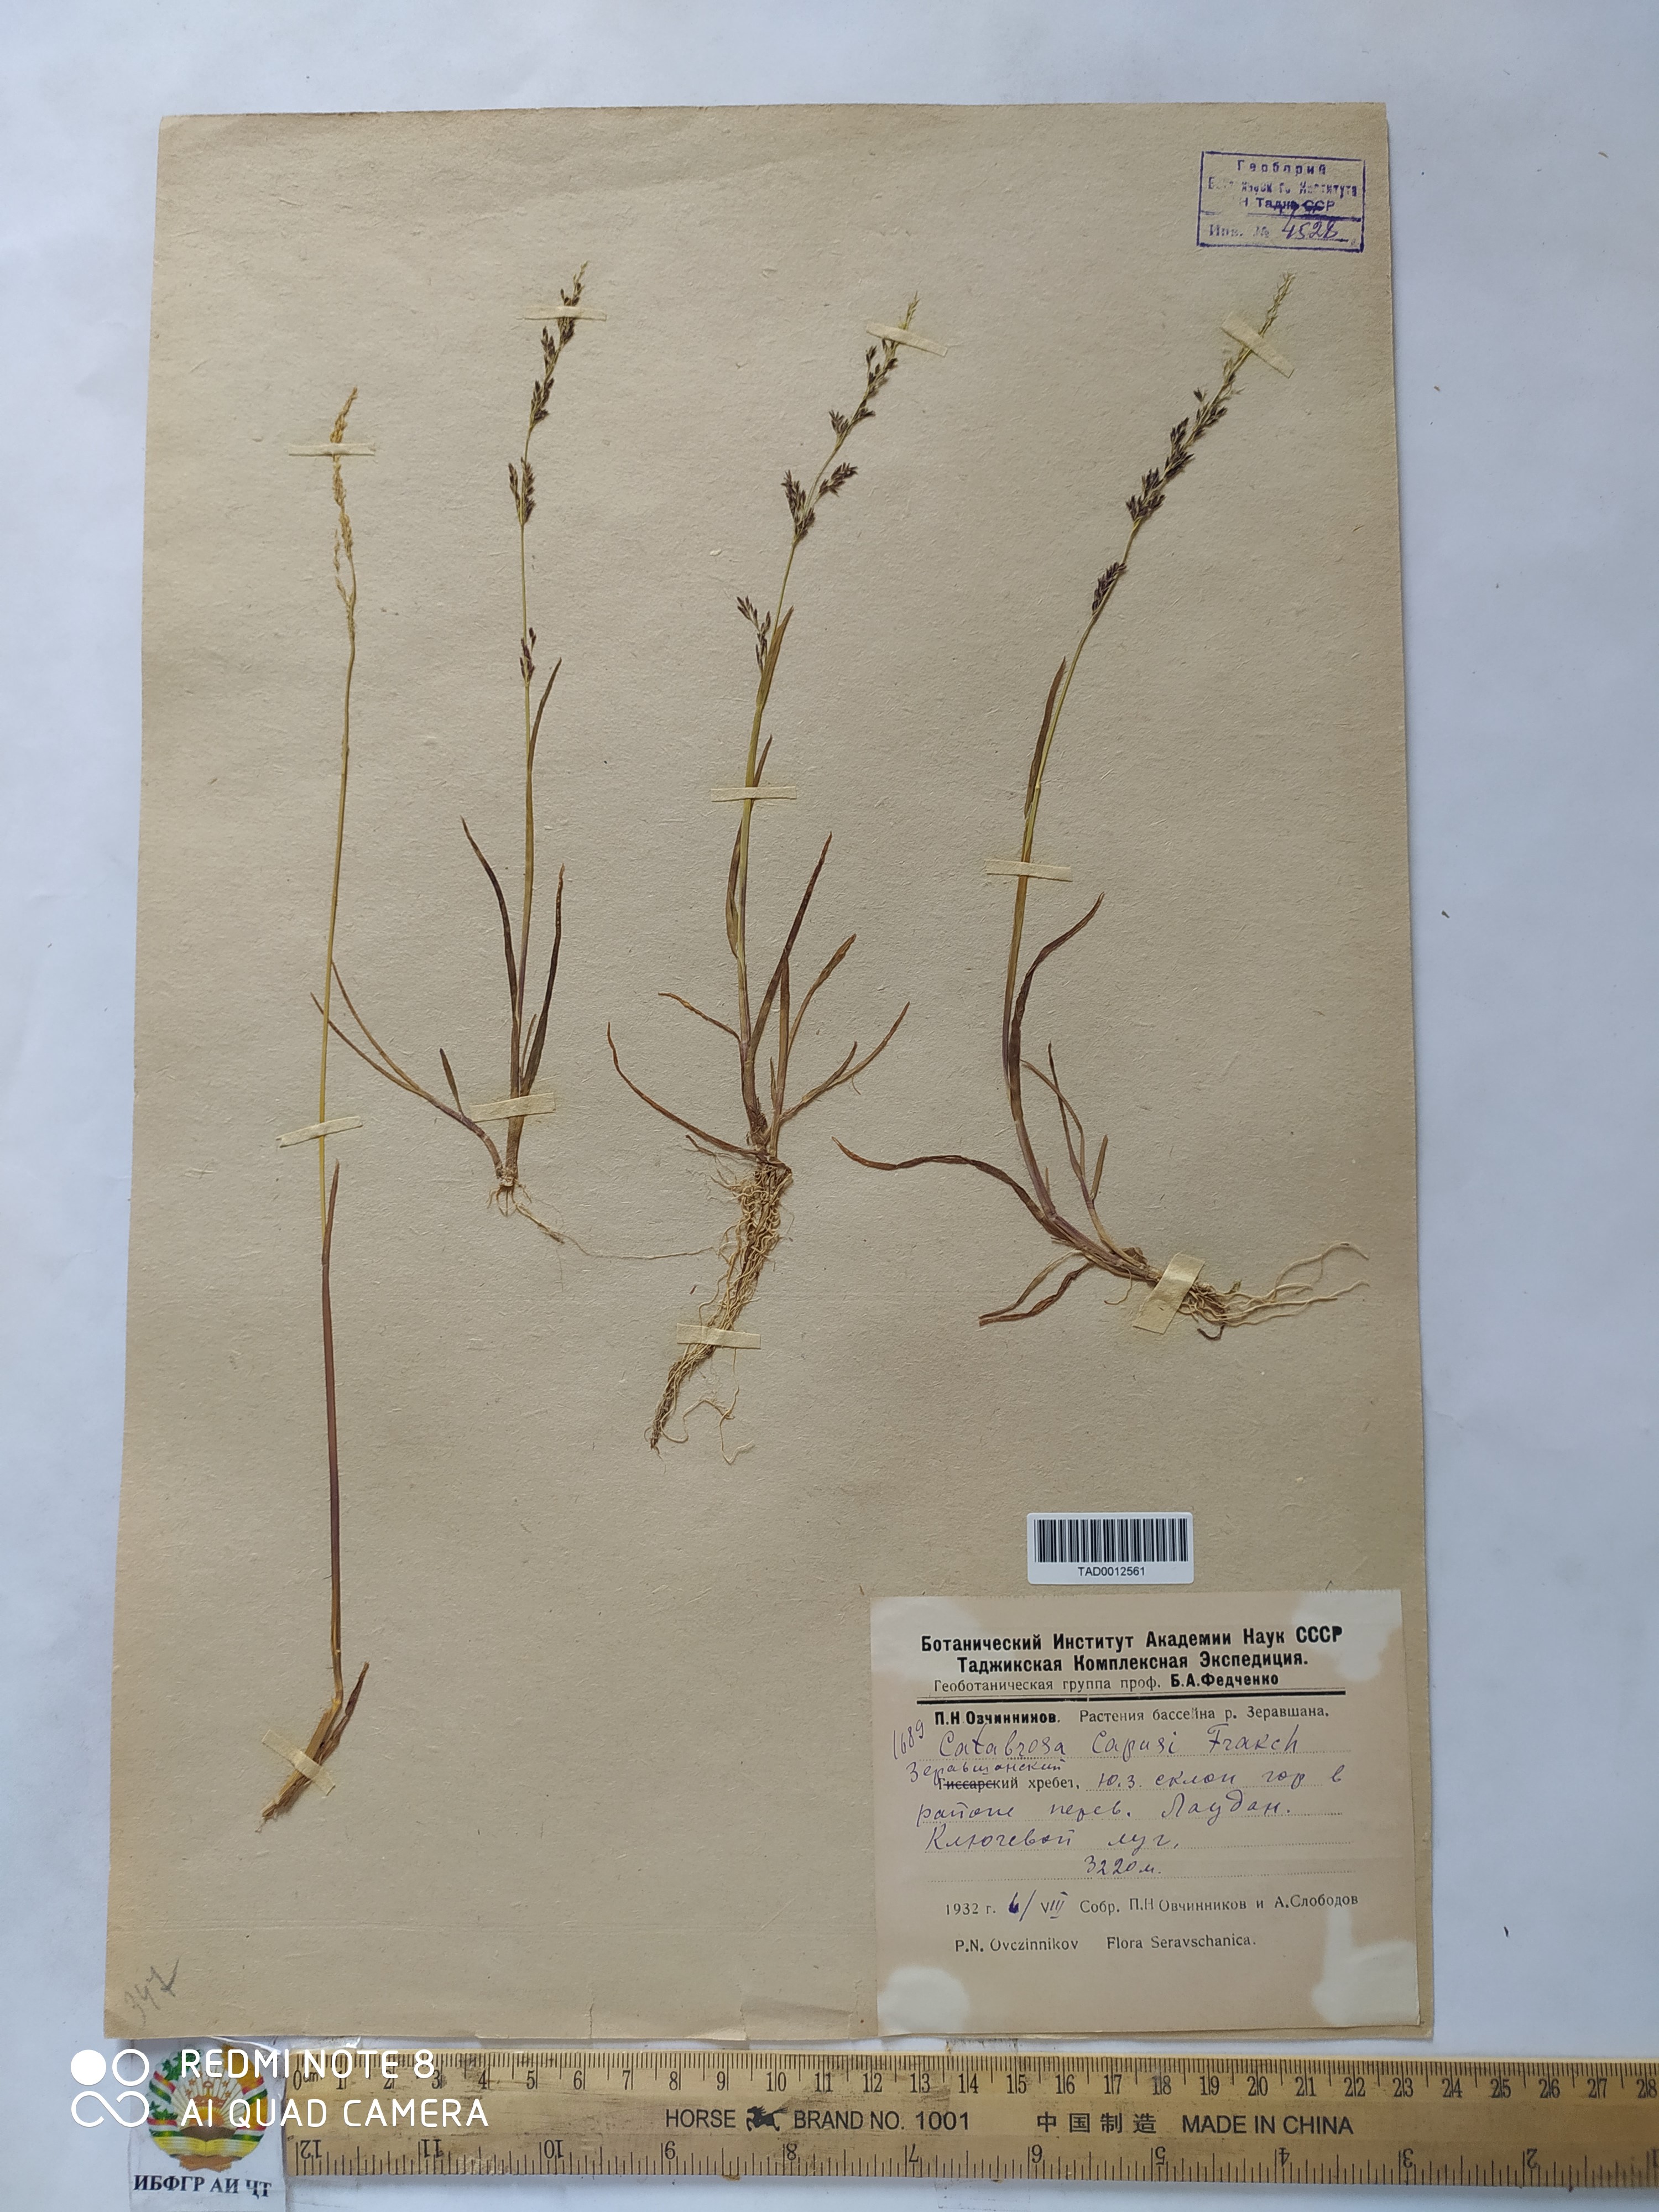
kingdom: Plantae
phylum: Tracheophyta
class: Liliopsida
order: Poales
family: Poaceae
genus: Catabrosa
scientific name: Catabrosa aquatica
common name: Whorl-grass
